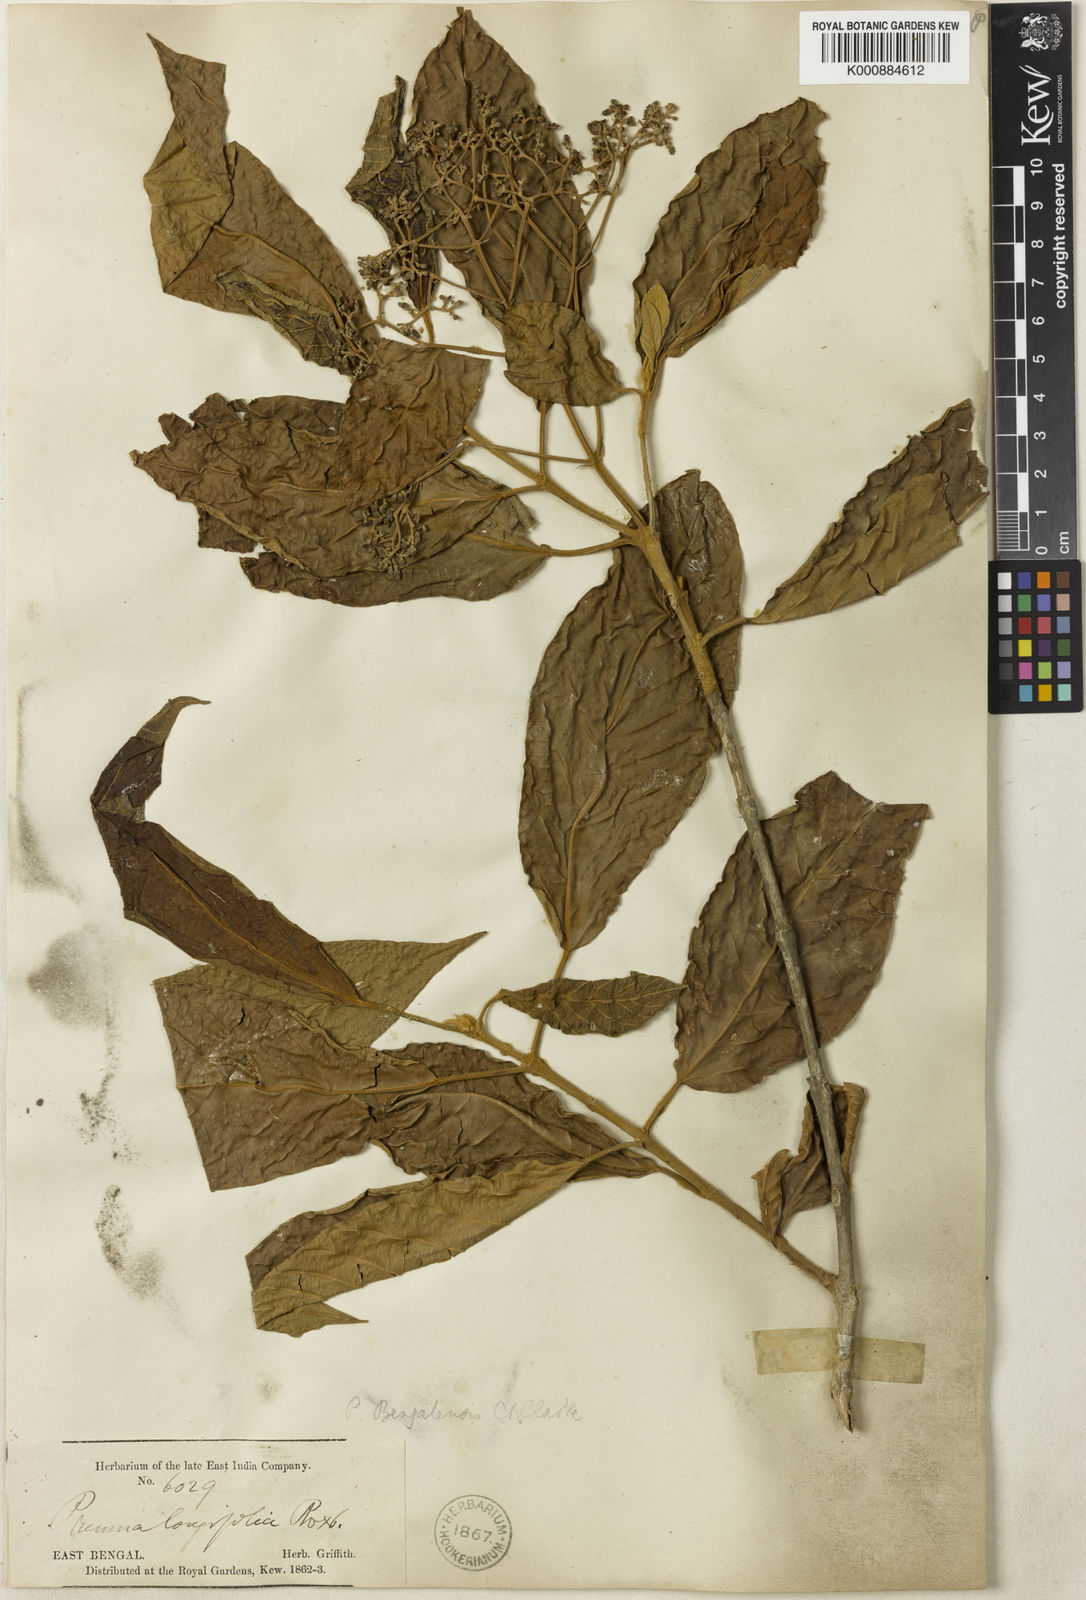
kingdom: Plantae
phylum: Tracheophyta
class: Magnoliopsida
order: Lamiales
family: Lamiaceae
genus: Premna
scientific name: Premna bengalensis
